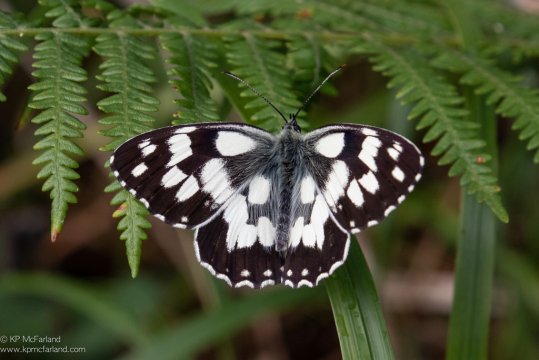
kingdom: Animalia
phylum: Arthropoda
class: Insecta
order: Lepidoptera
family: Nymphalidae
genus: Melanargia
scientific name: Melanargia galathea
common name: Marbled White
